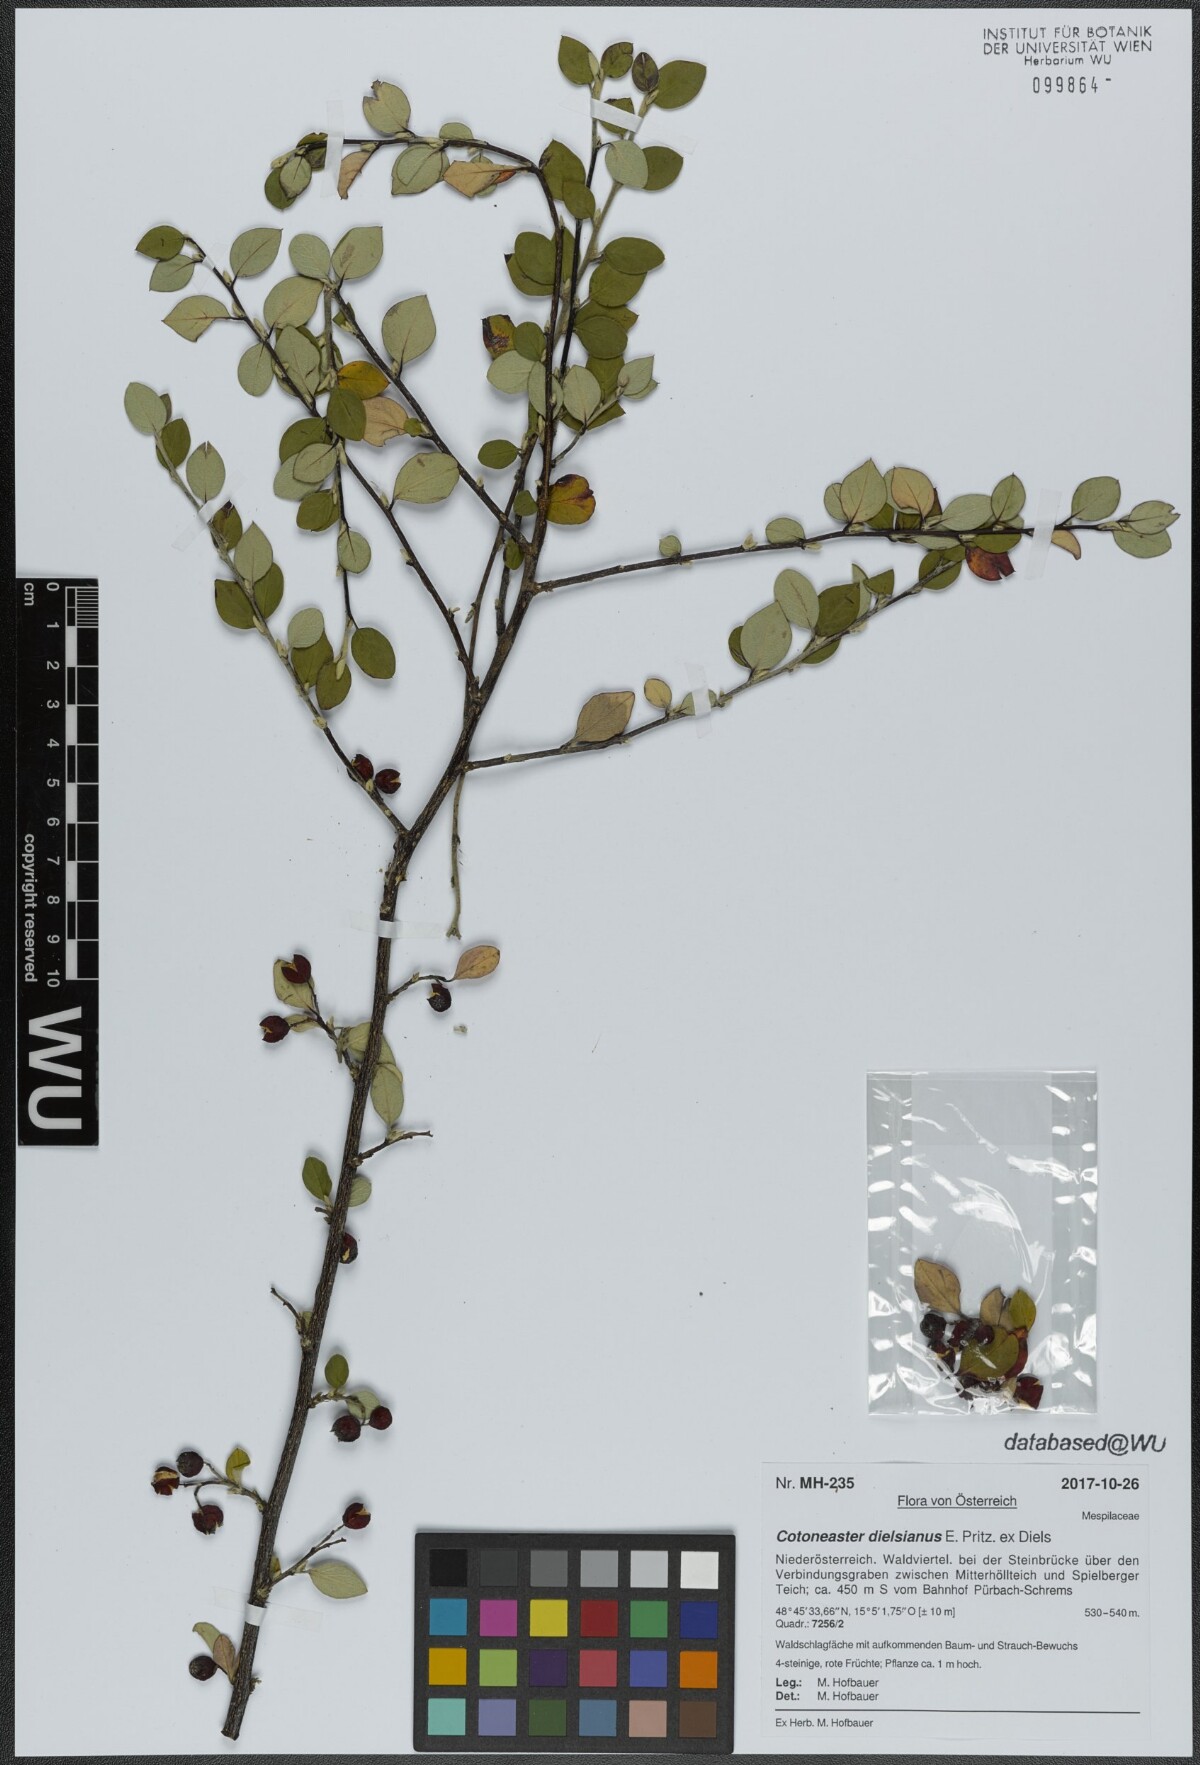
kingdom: Plantae
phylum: Tracheophyta
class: Magnoliopsida
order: Rosales
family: Rosaceae
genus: Cotoneaster
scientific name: Cotoneaster dielsianus
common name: Diels's cotoneaster
